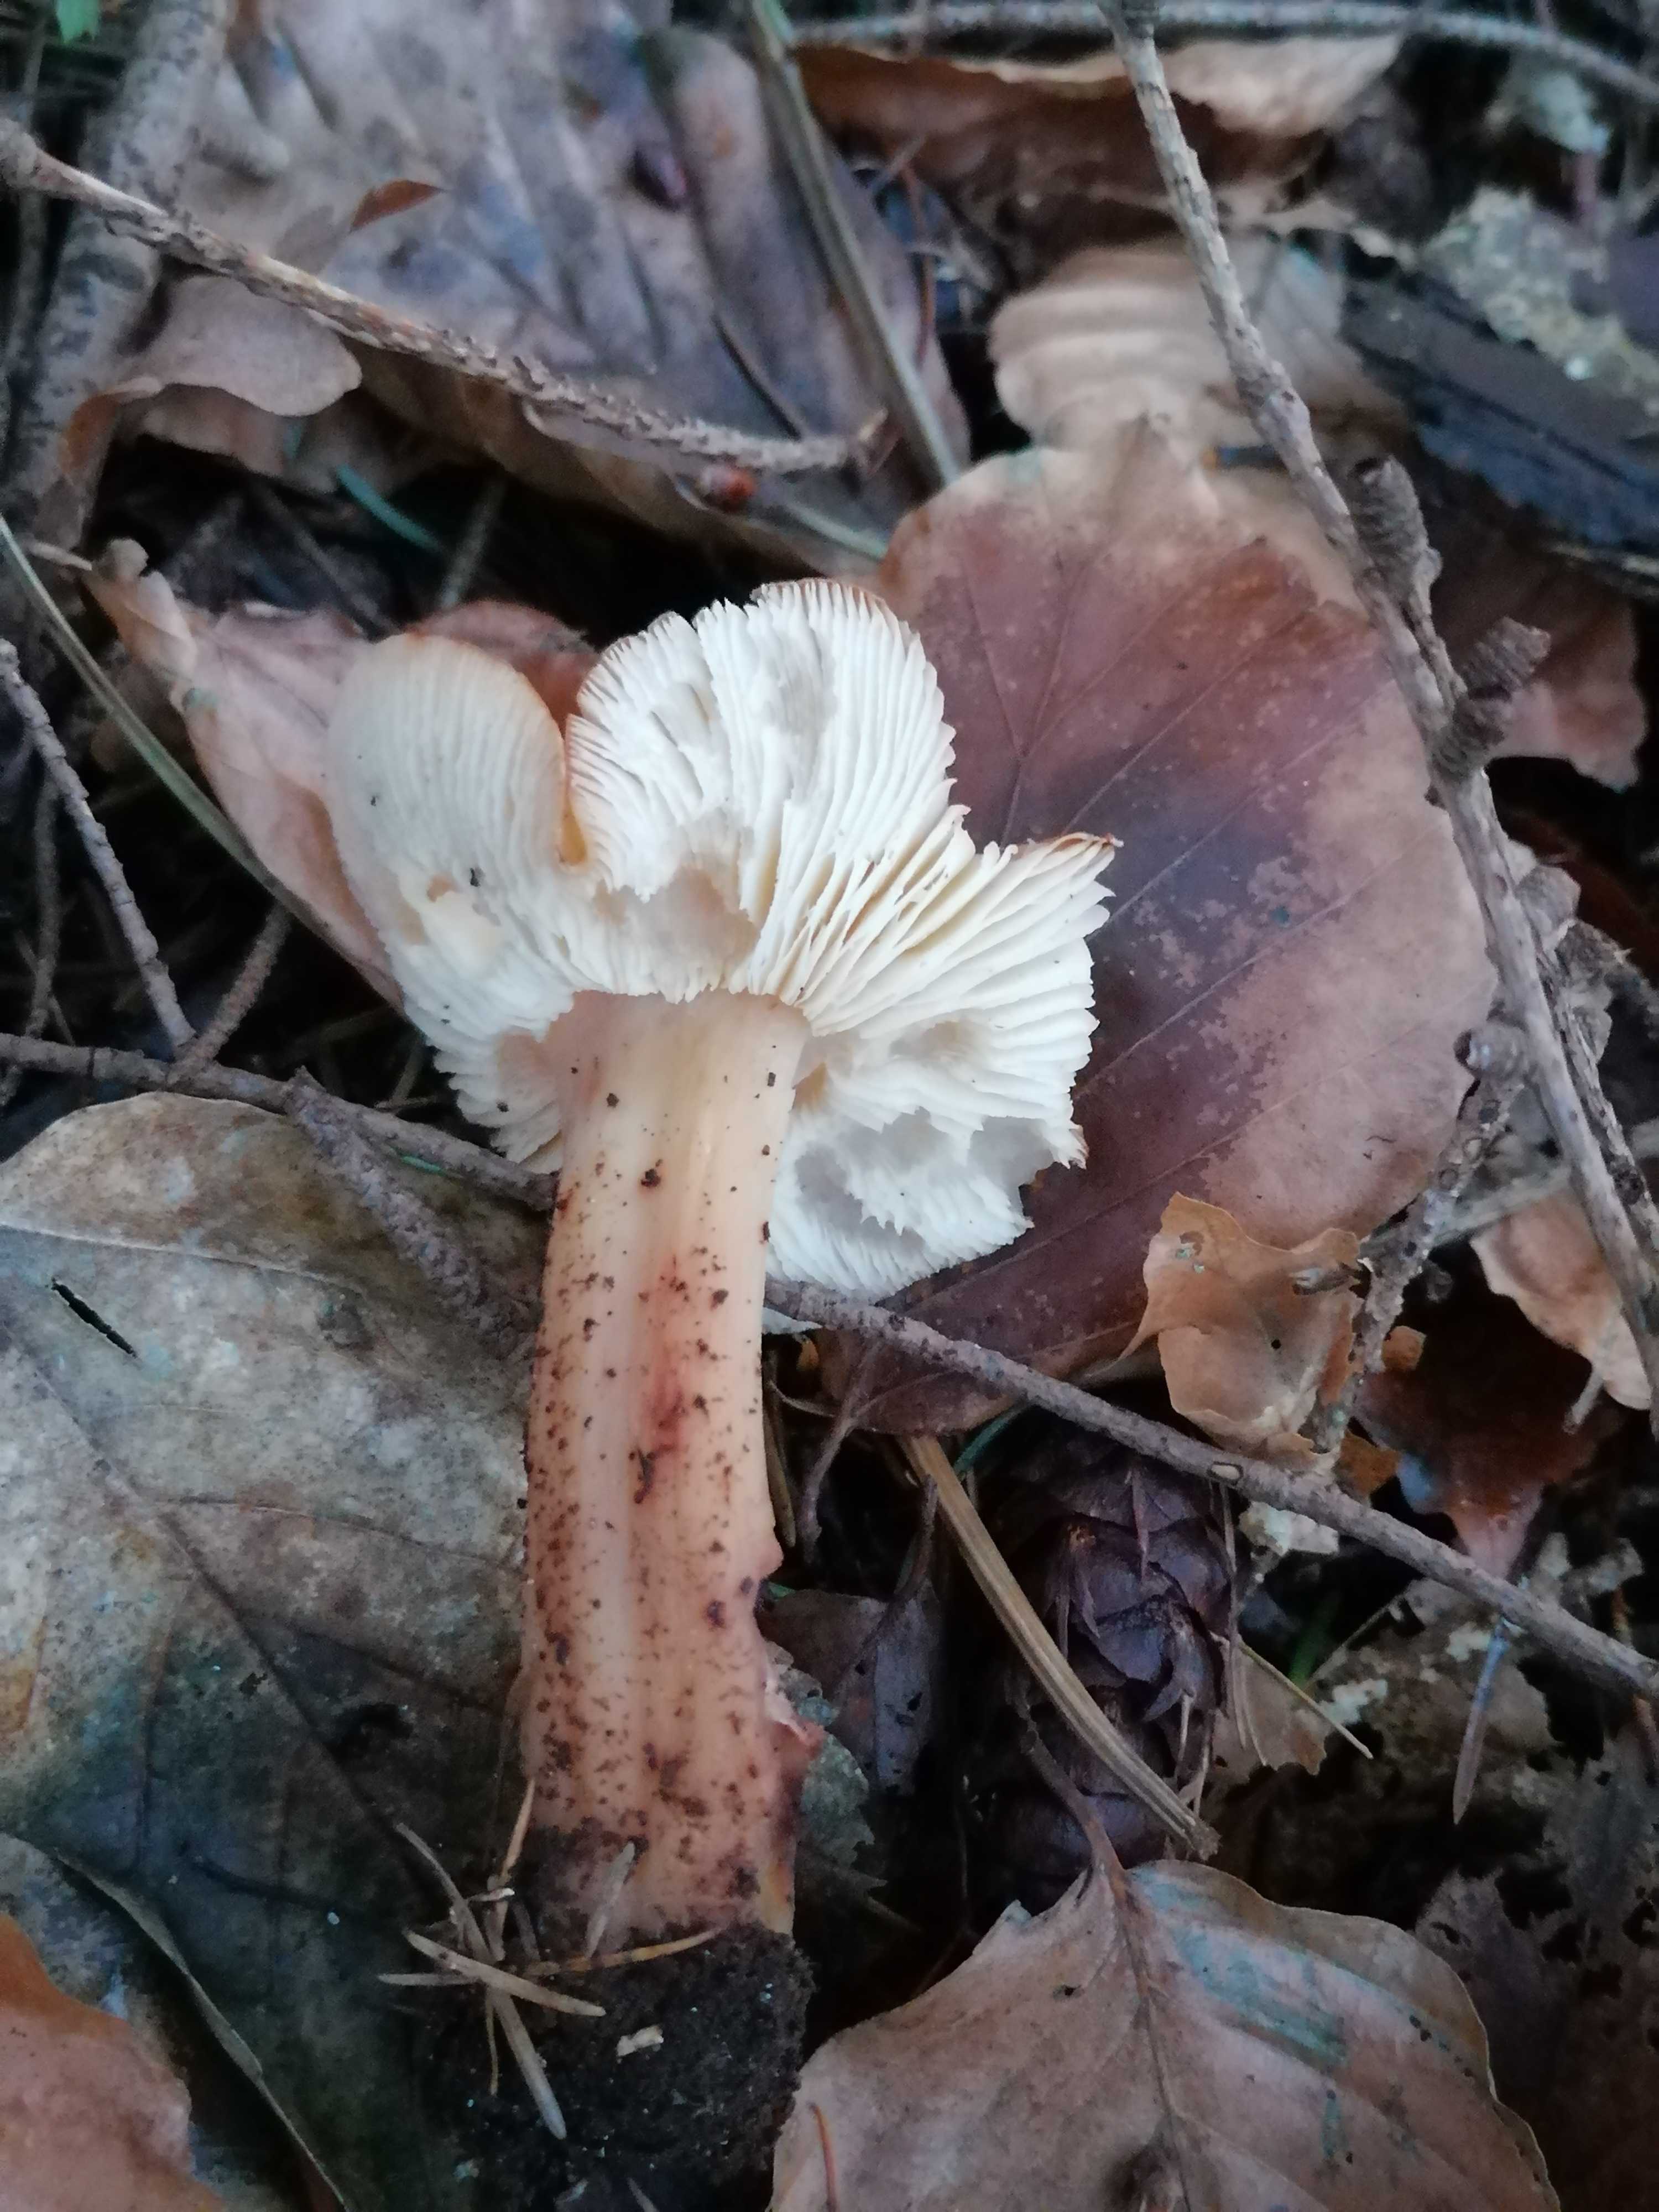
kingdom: Fungi
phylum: Basidiomycota
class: Agaricomycetes
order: Agaricales
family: Omphalotaceae
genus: Rhodocollybia
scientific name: Rhodocollybia maculata
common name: plettet fladhat
